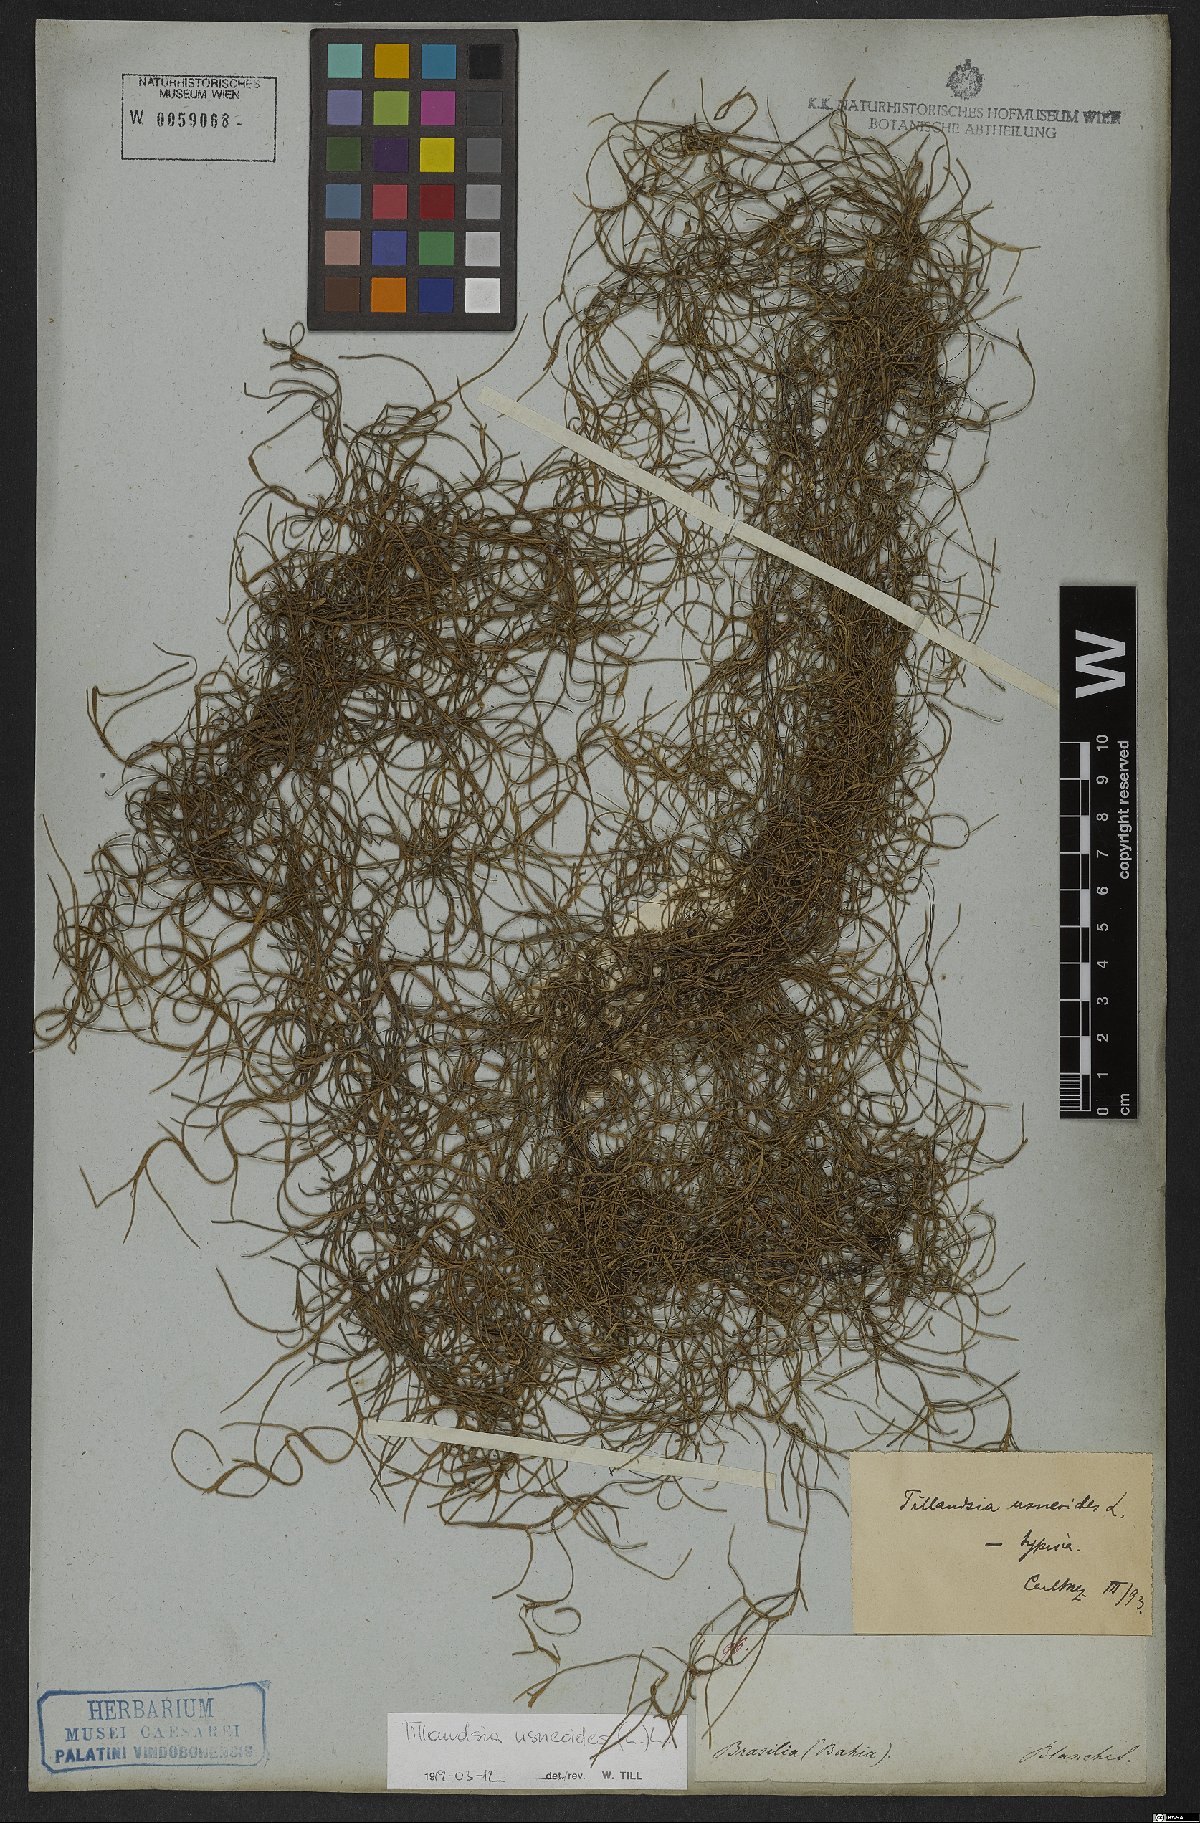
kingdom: Plantae
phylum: Tracheophyta
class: Liliopsida
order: Poales
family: Bromeliaceae
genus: Tillandsia
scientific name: Tillandsia usneoides
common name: Spanish moss
